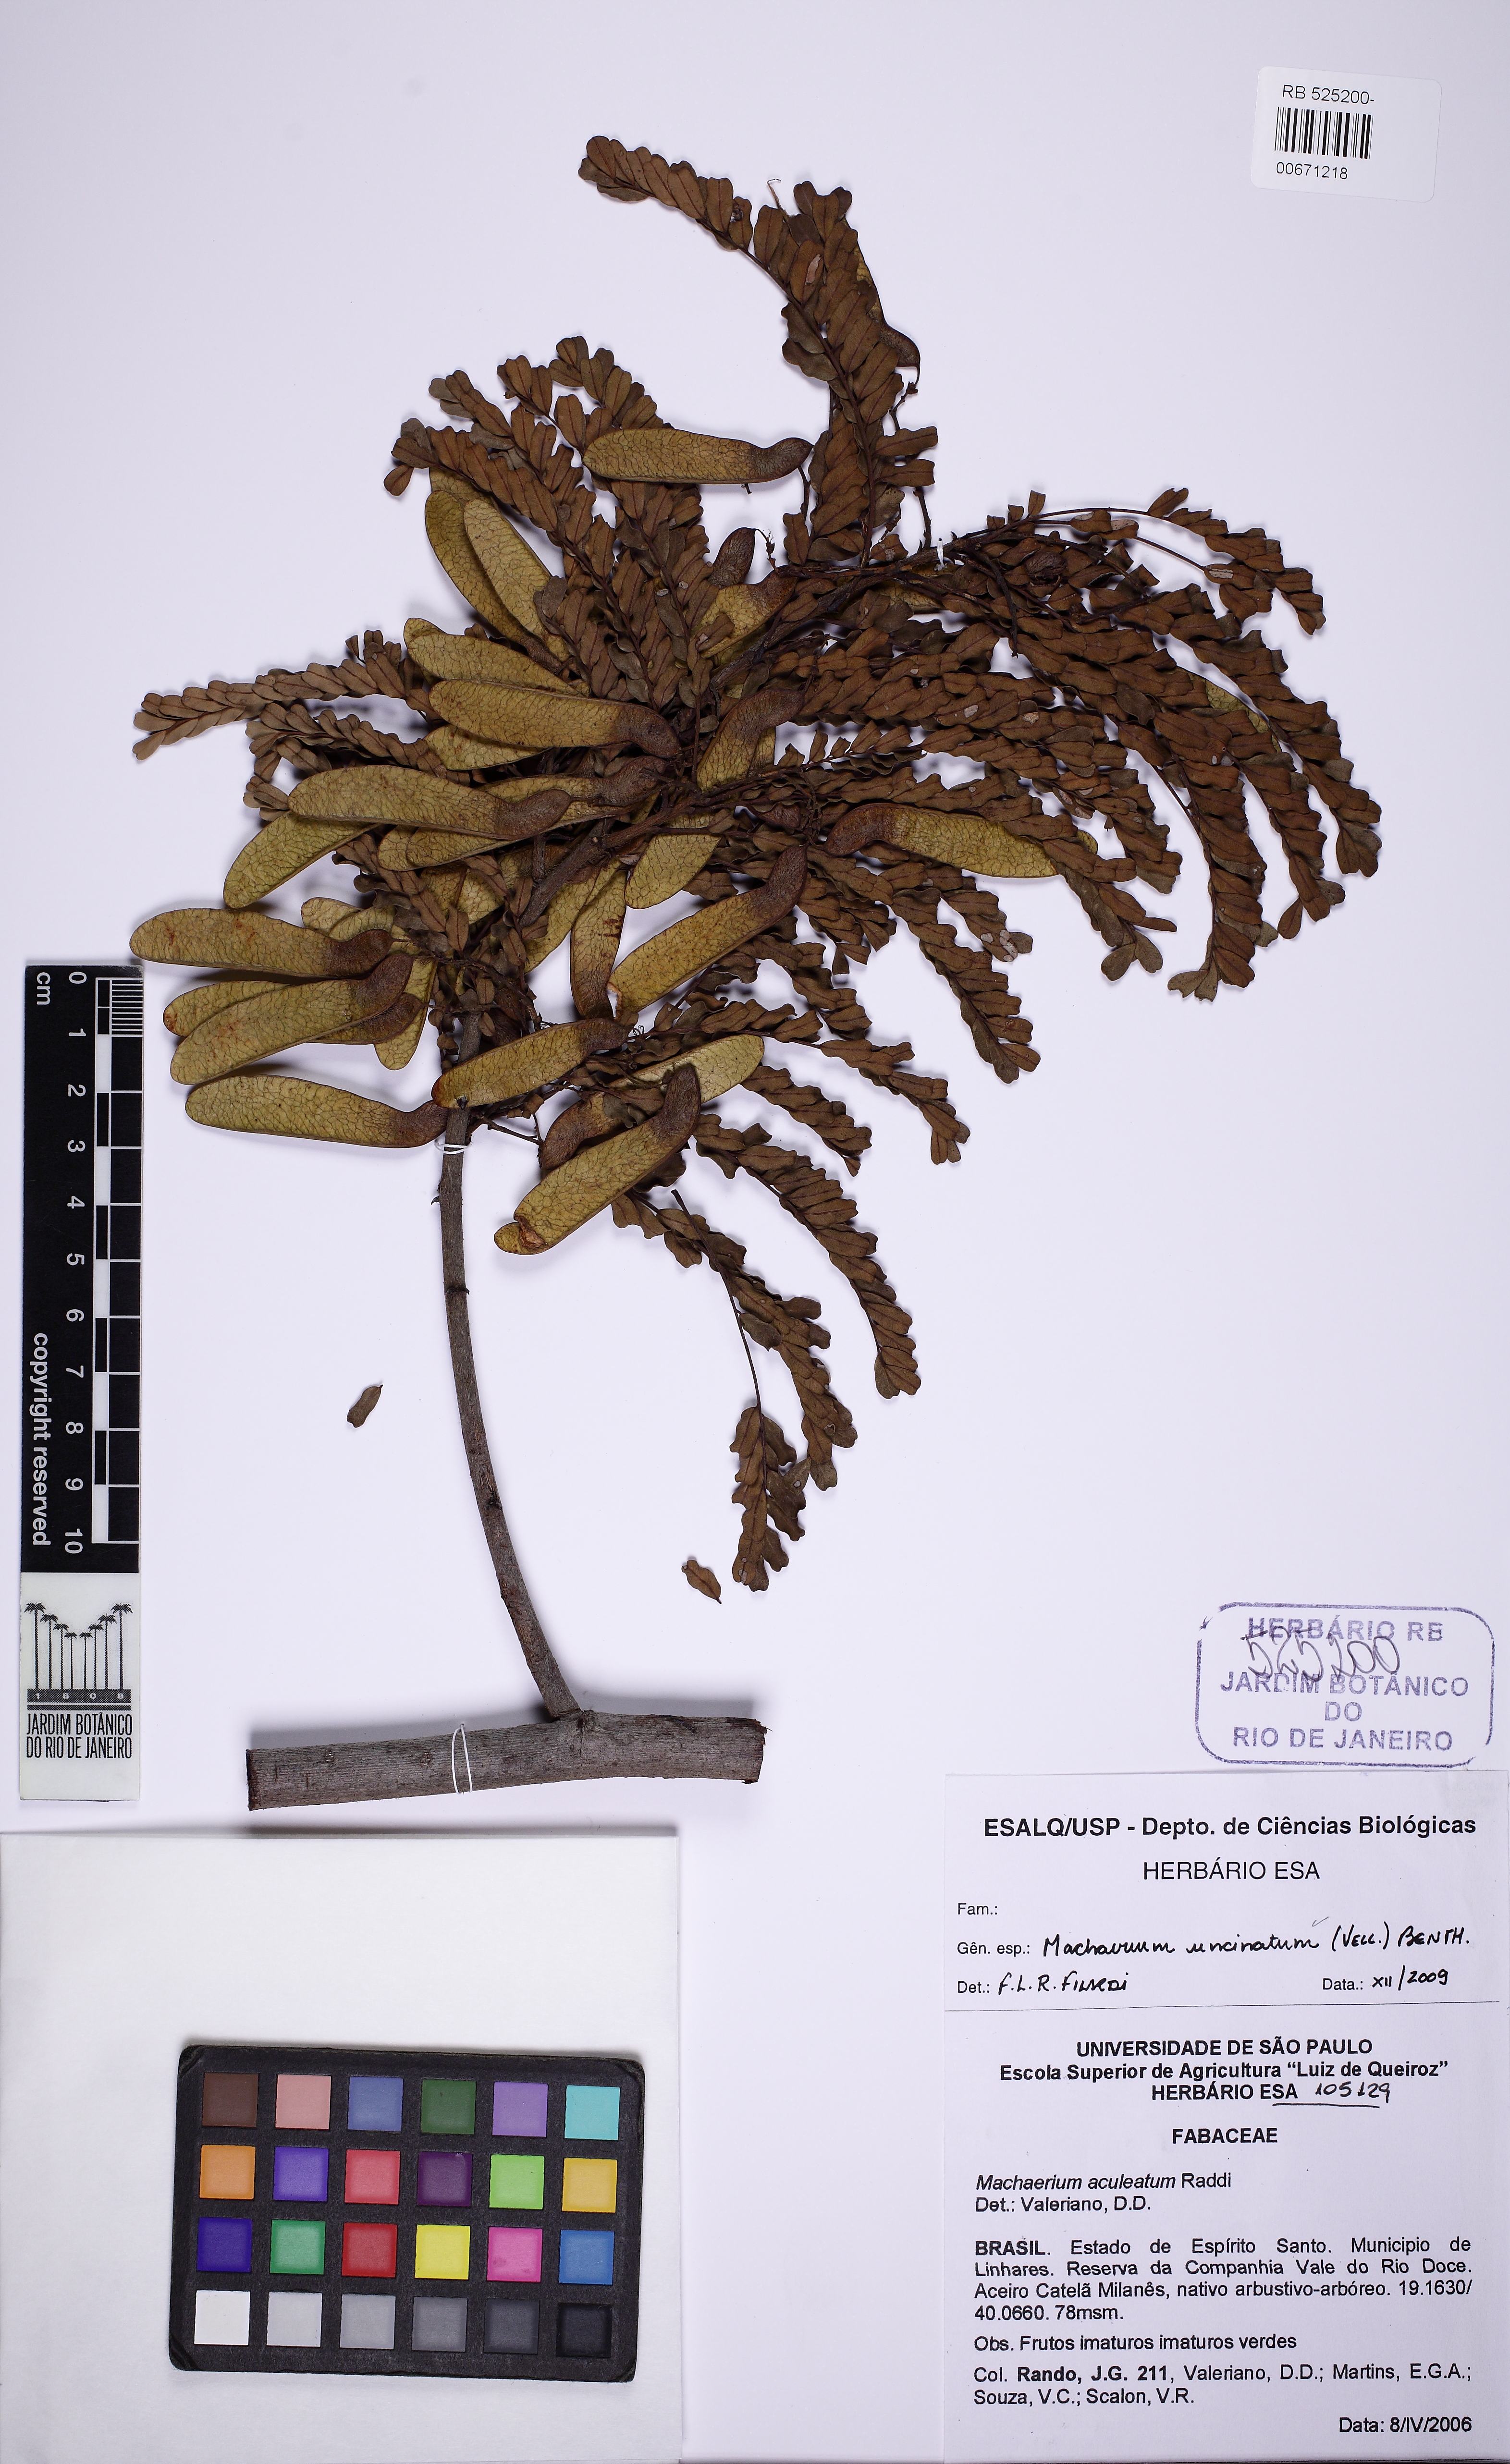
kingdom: Plantae
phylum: Tracheophyta
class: Magnoliopsida
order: Fabales
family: Fabaceae
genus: Machaerium
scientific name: Machaerium uncinatum
